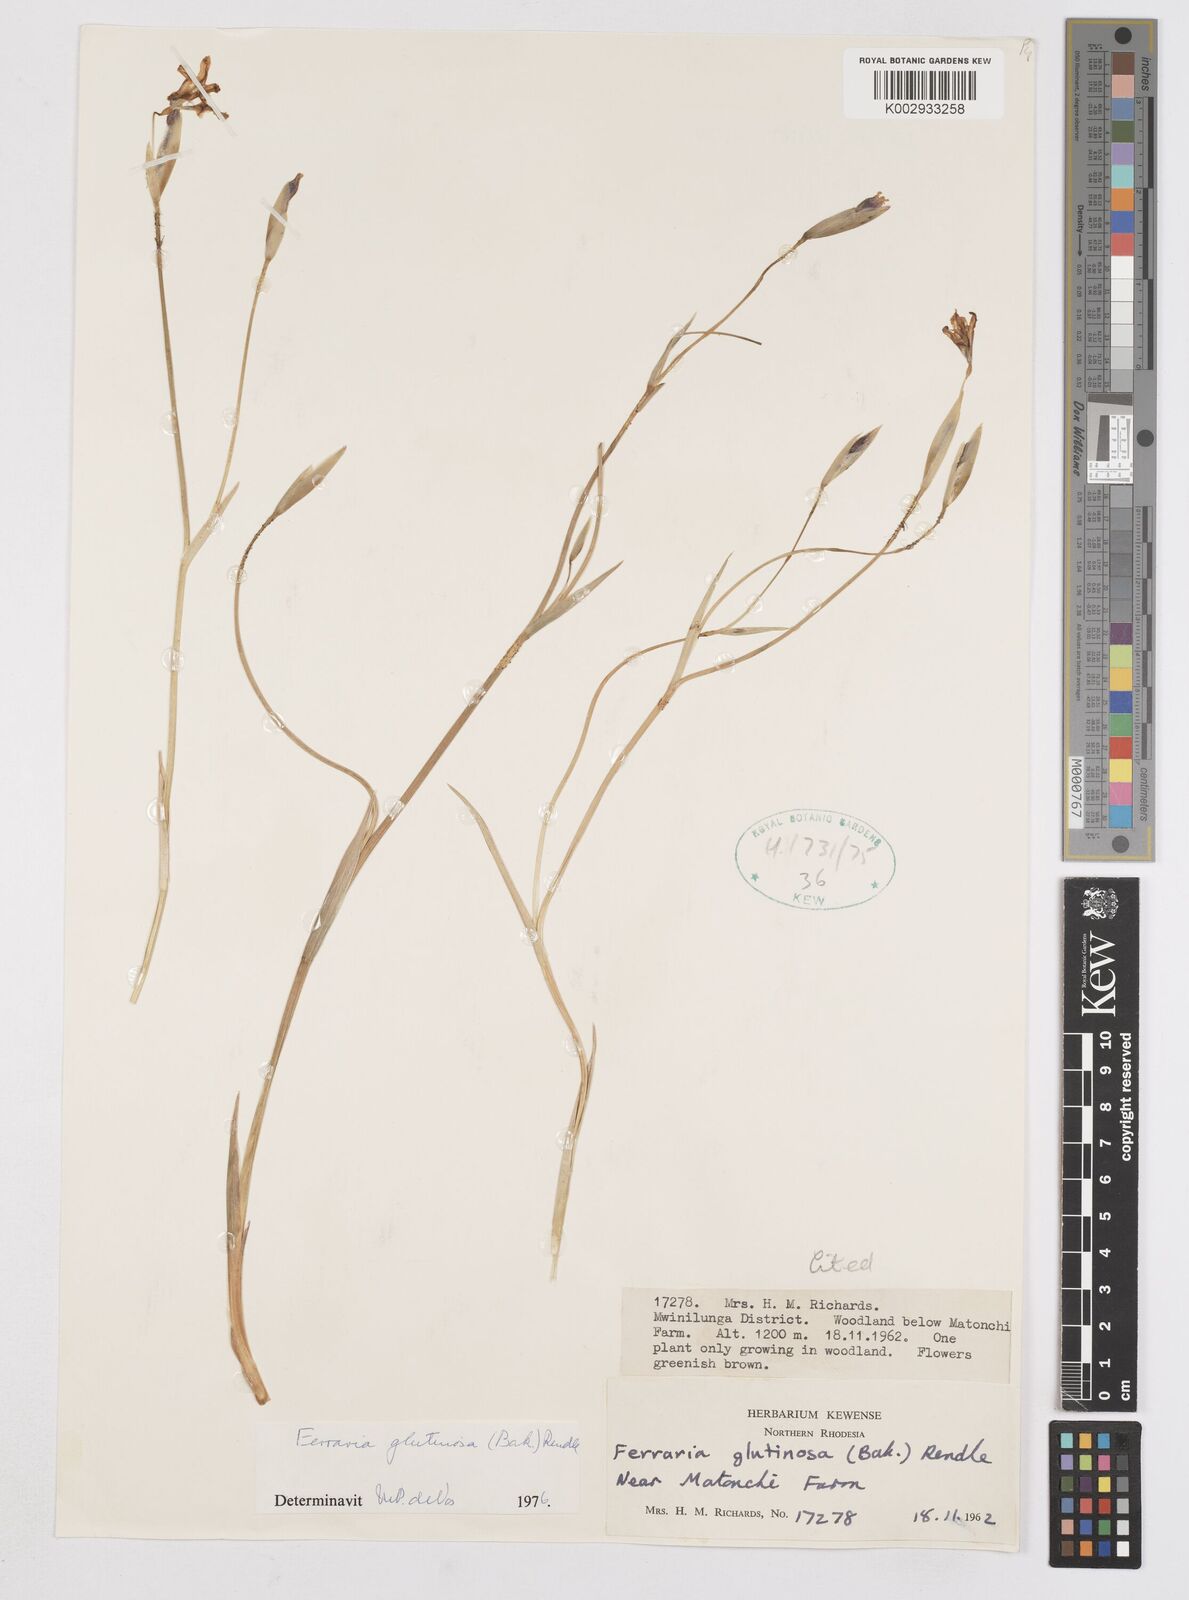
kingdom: Plantae
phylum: Tracheophyta
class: Liliopsida
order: Asparagales
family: Iridaceae
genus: Ferraria
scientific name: Ferraria
